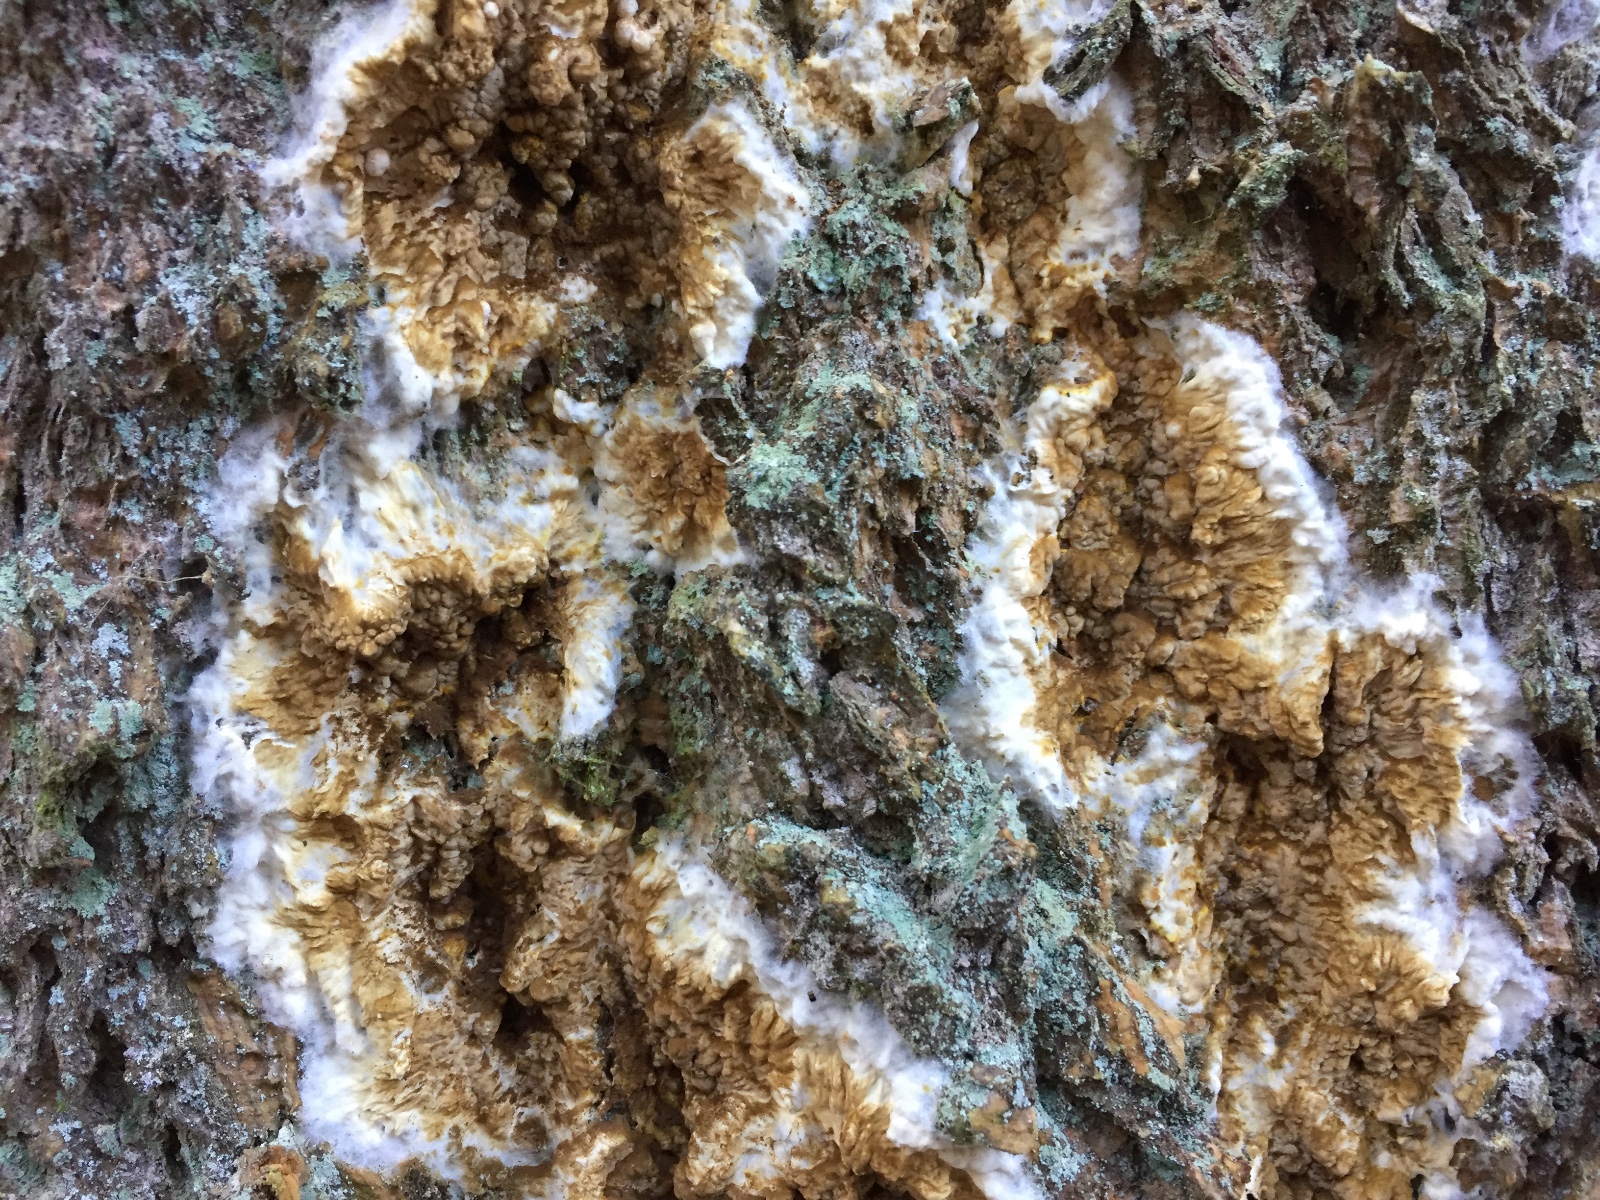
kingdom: Fungi
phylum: Basidiomycota
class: Agaricomycetes
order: Boletales
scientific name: Boletales
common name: rørhatordenen
